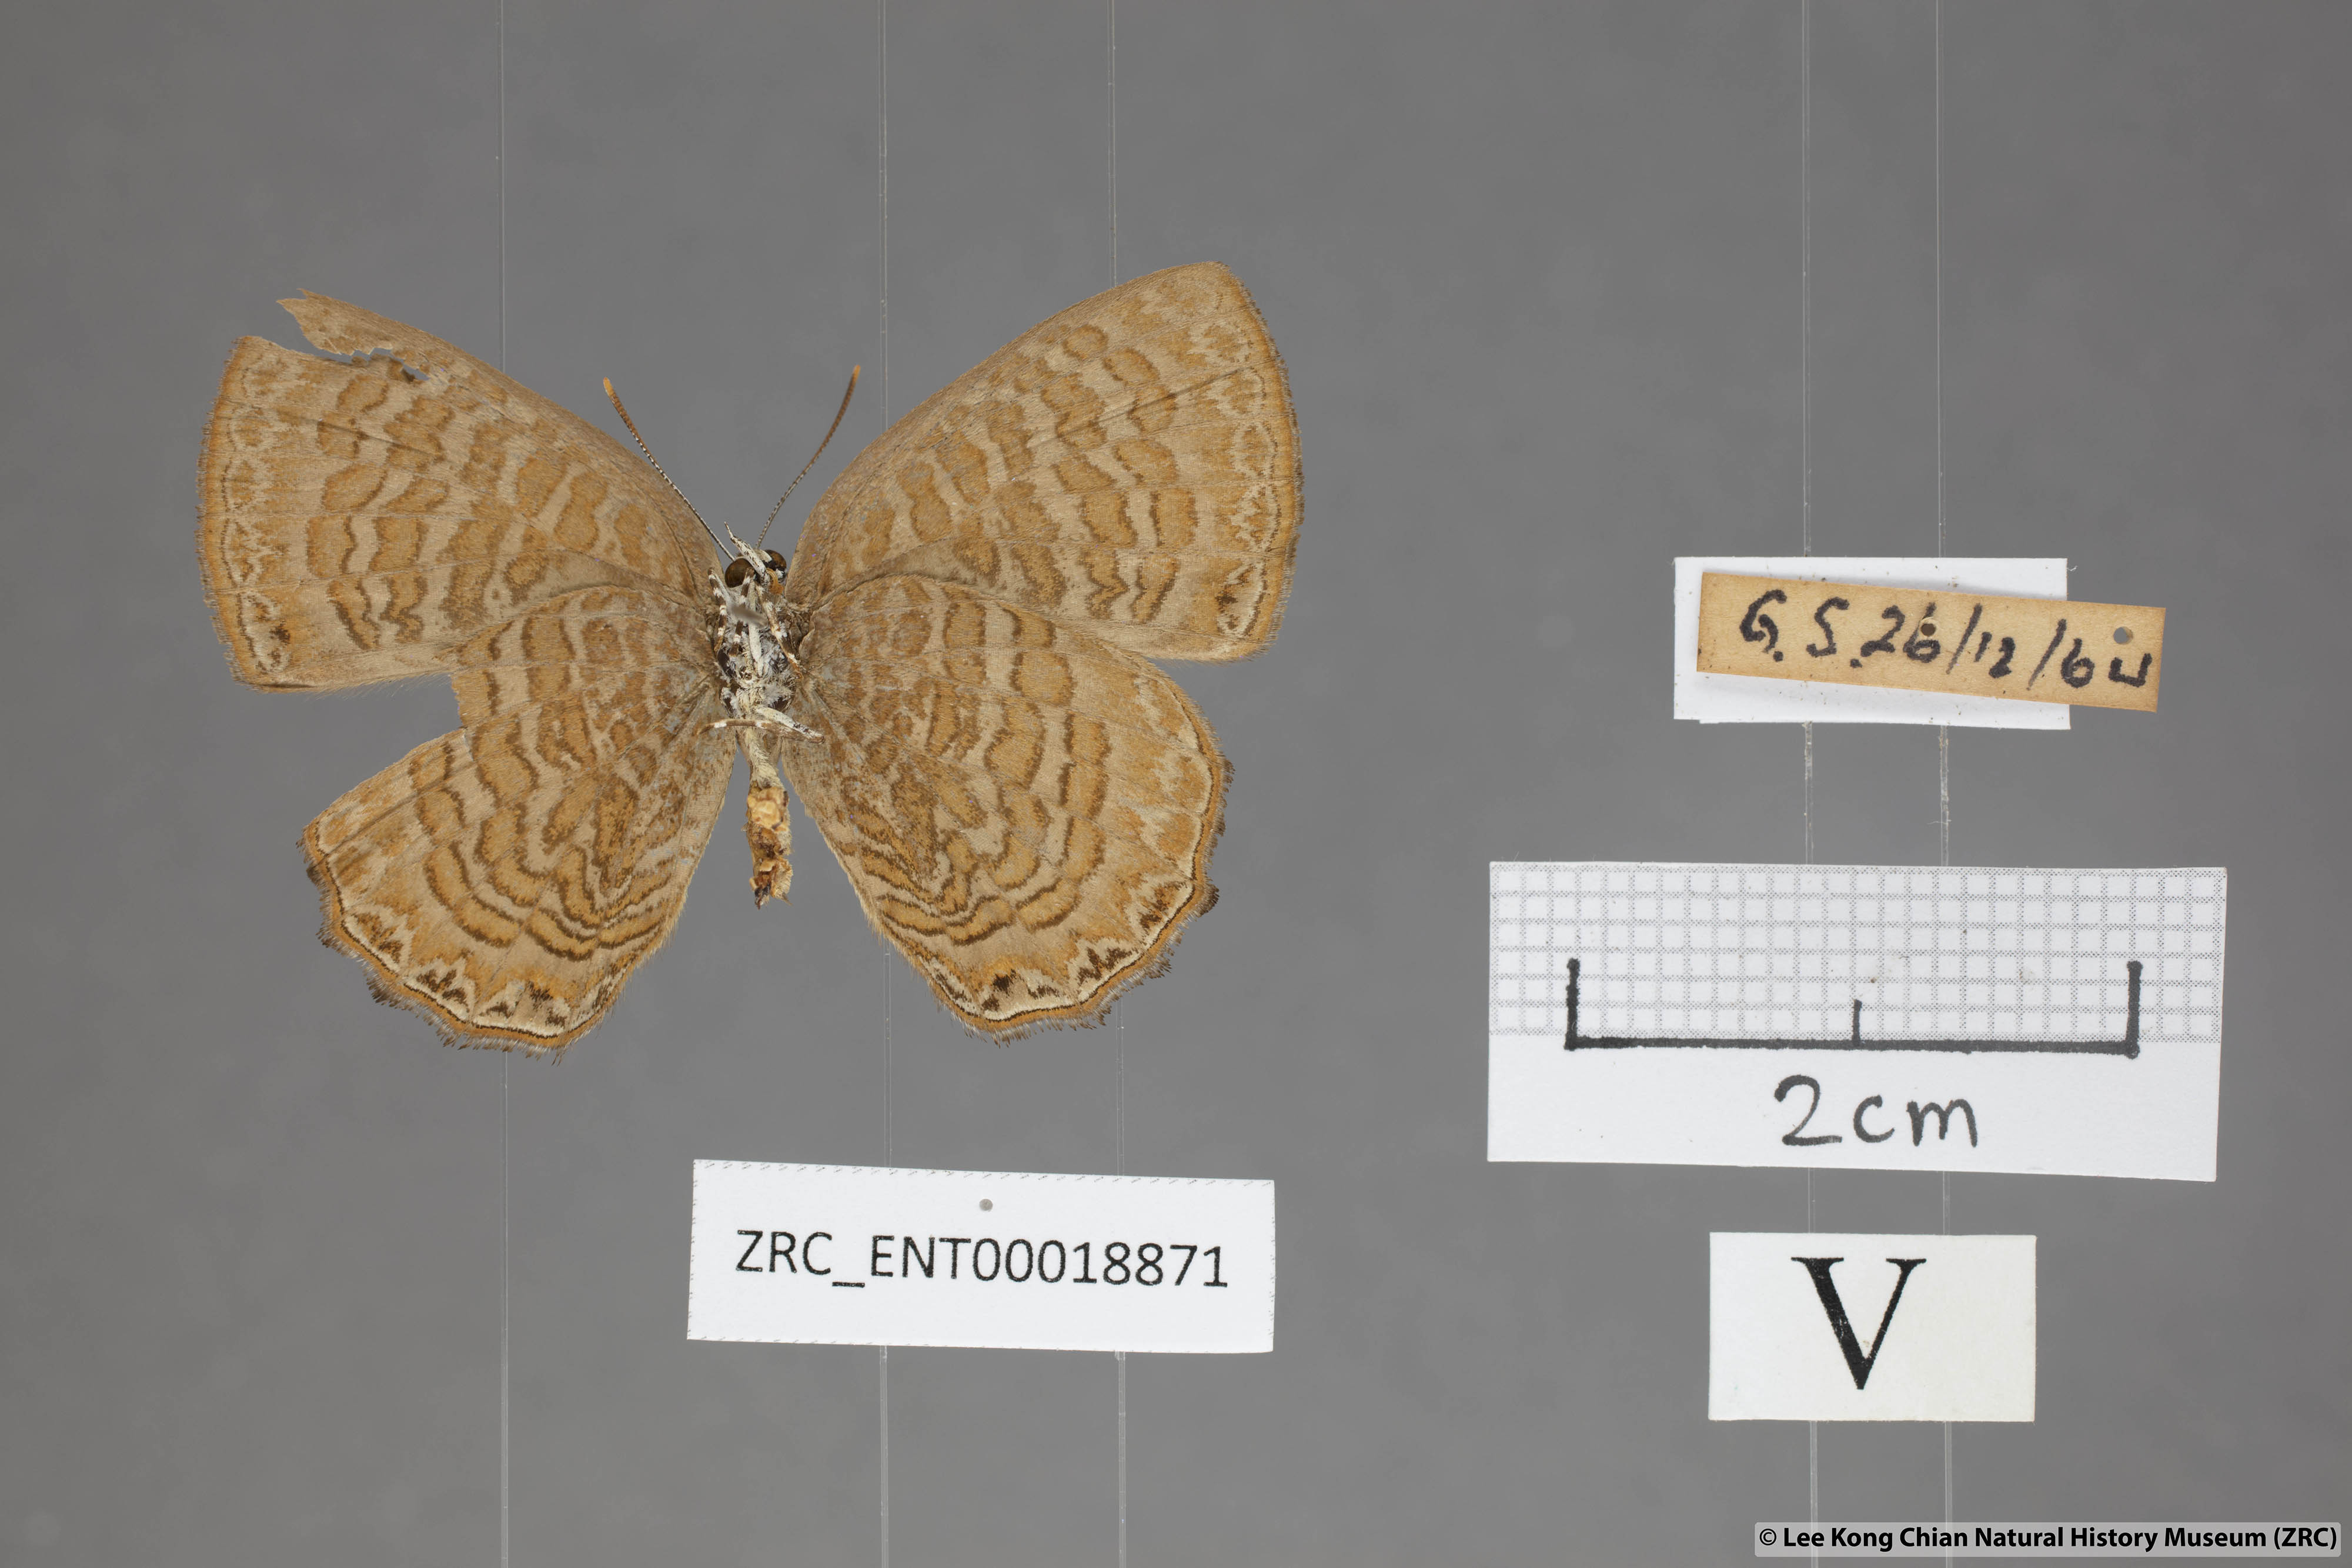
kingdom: Animalia
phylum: Arthropoda
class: Insecta
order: Lepidoptera
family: Lycaenidae
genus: Poritia
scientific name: Poritia sumatrae
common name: Sumatran gem
